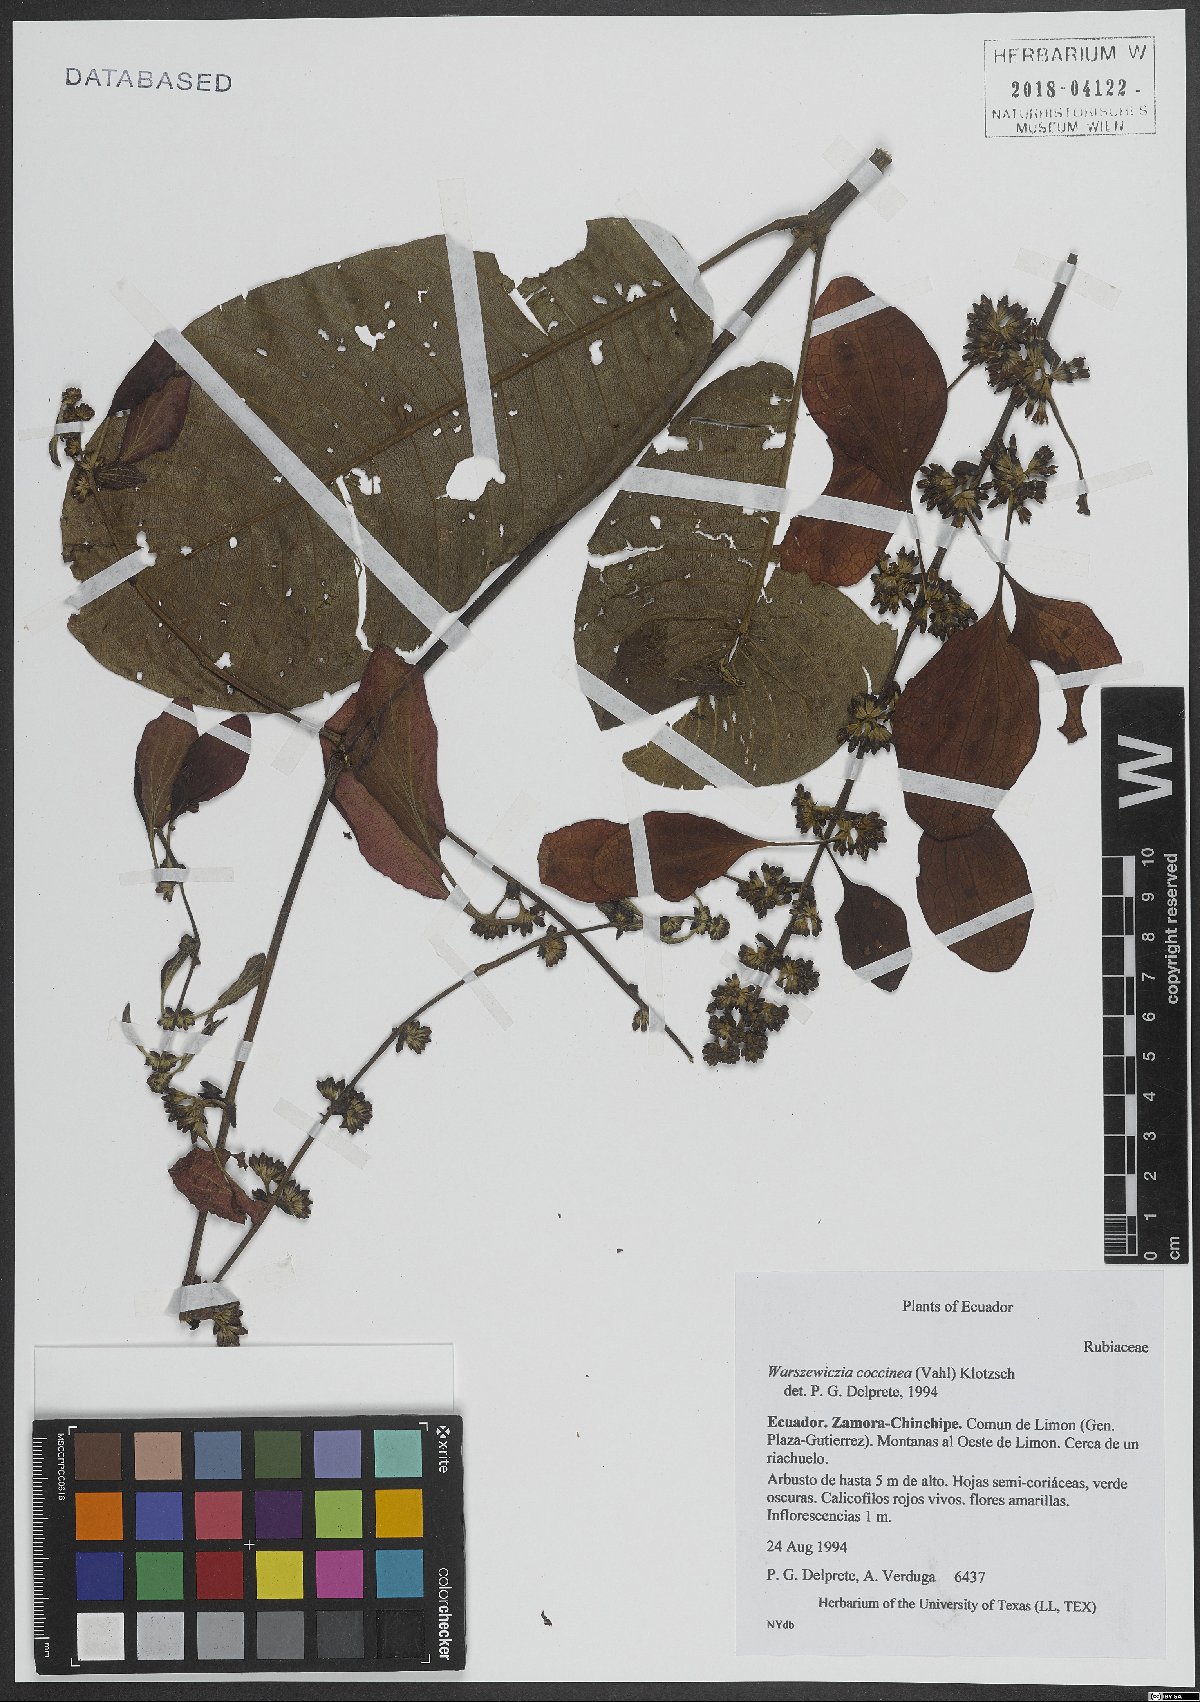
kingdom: Plantae
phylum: Tracheophyta
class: Magnoliopsida
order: Gentianales
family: Rubiaceae
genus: Warszewiczia
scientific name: Warszewiczia coccinea
